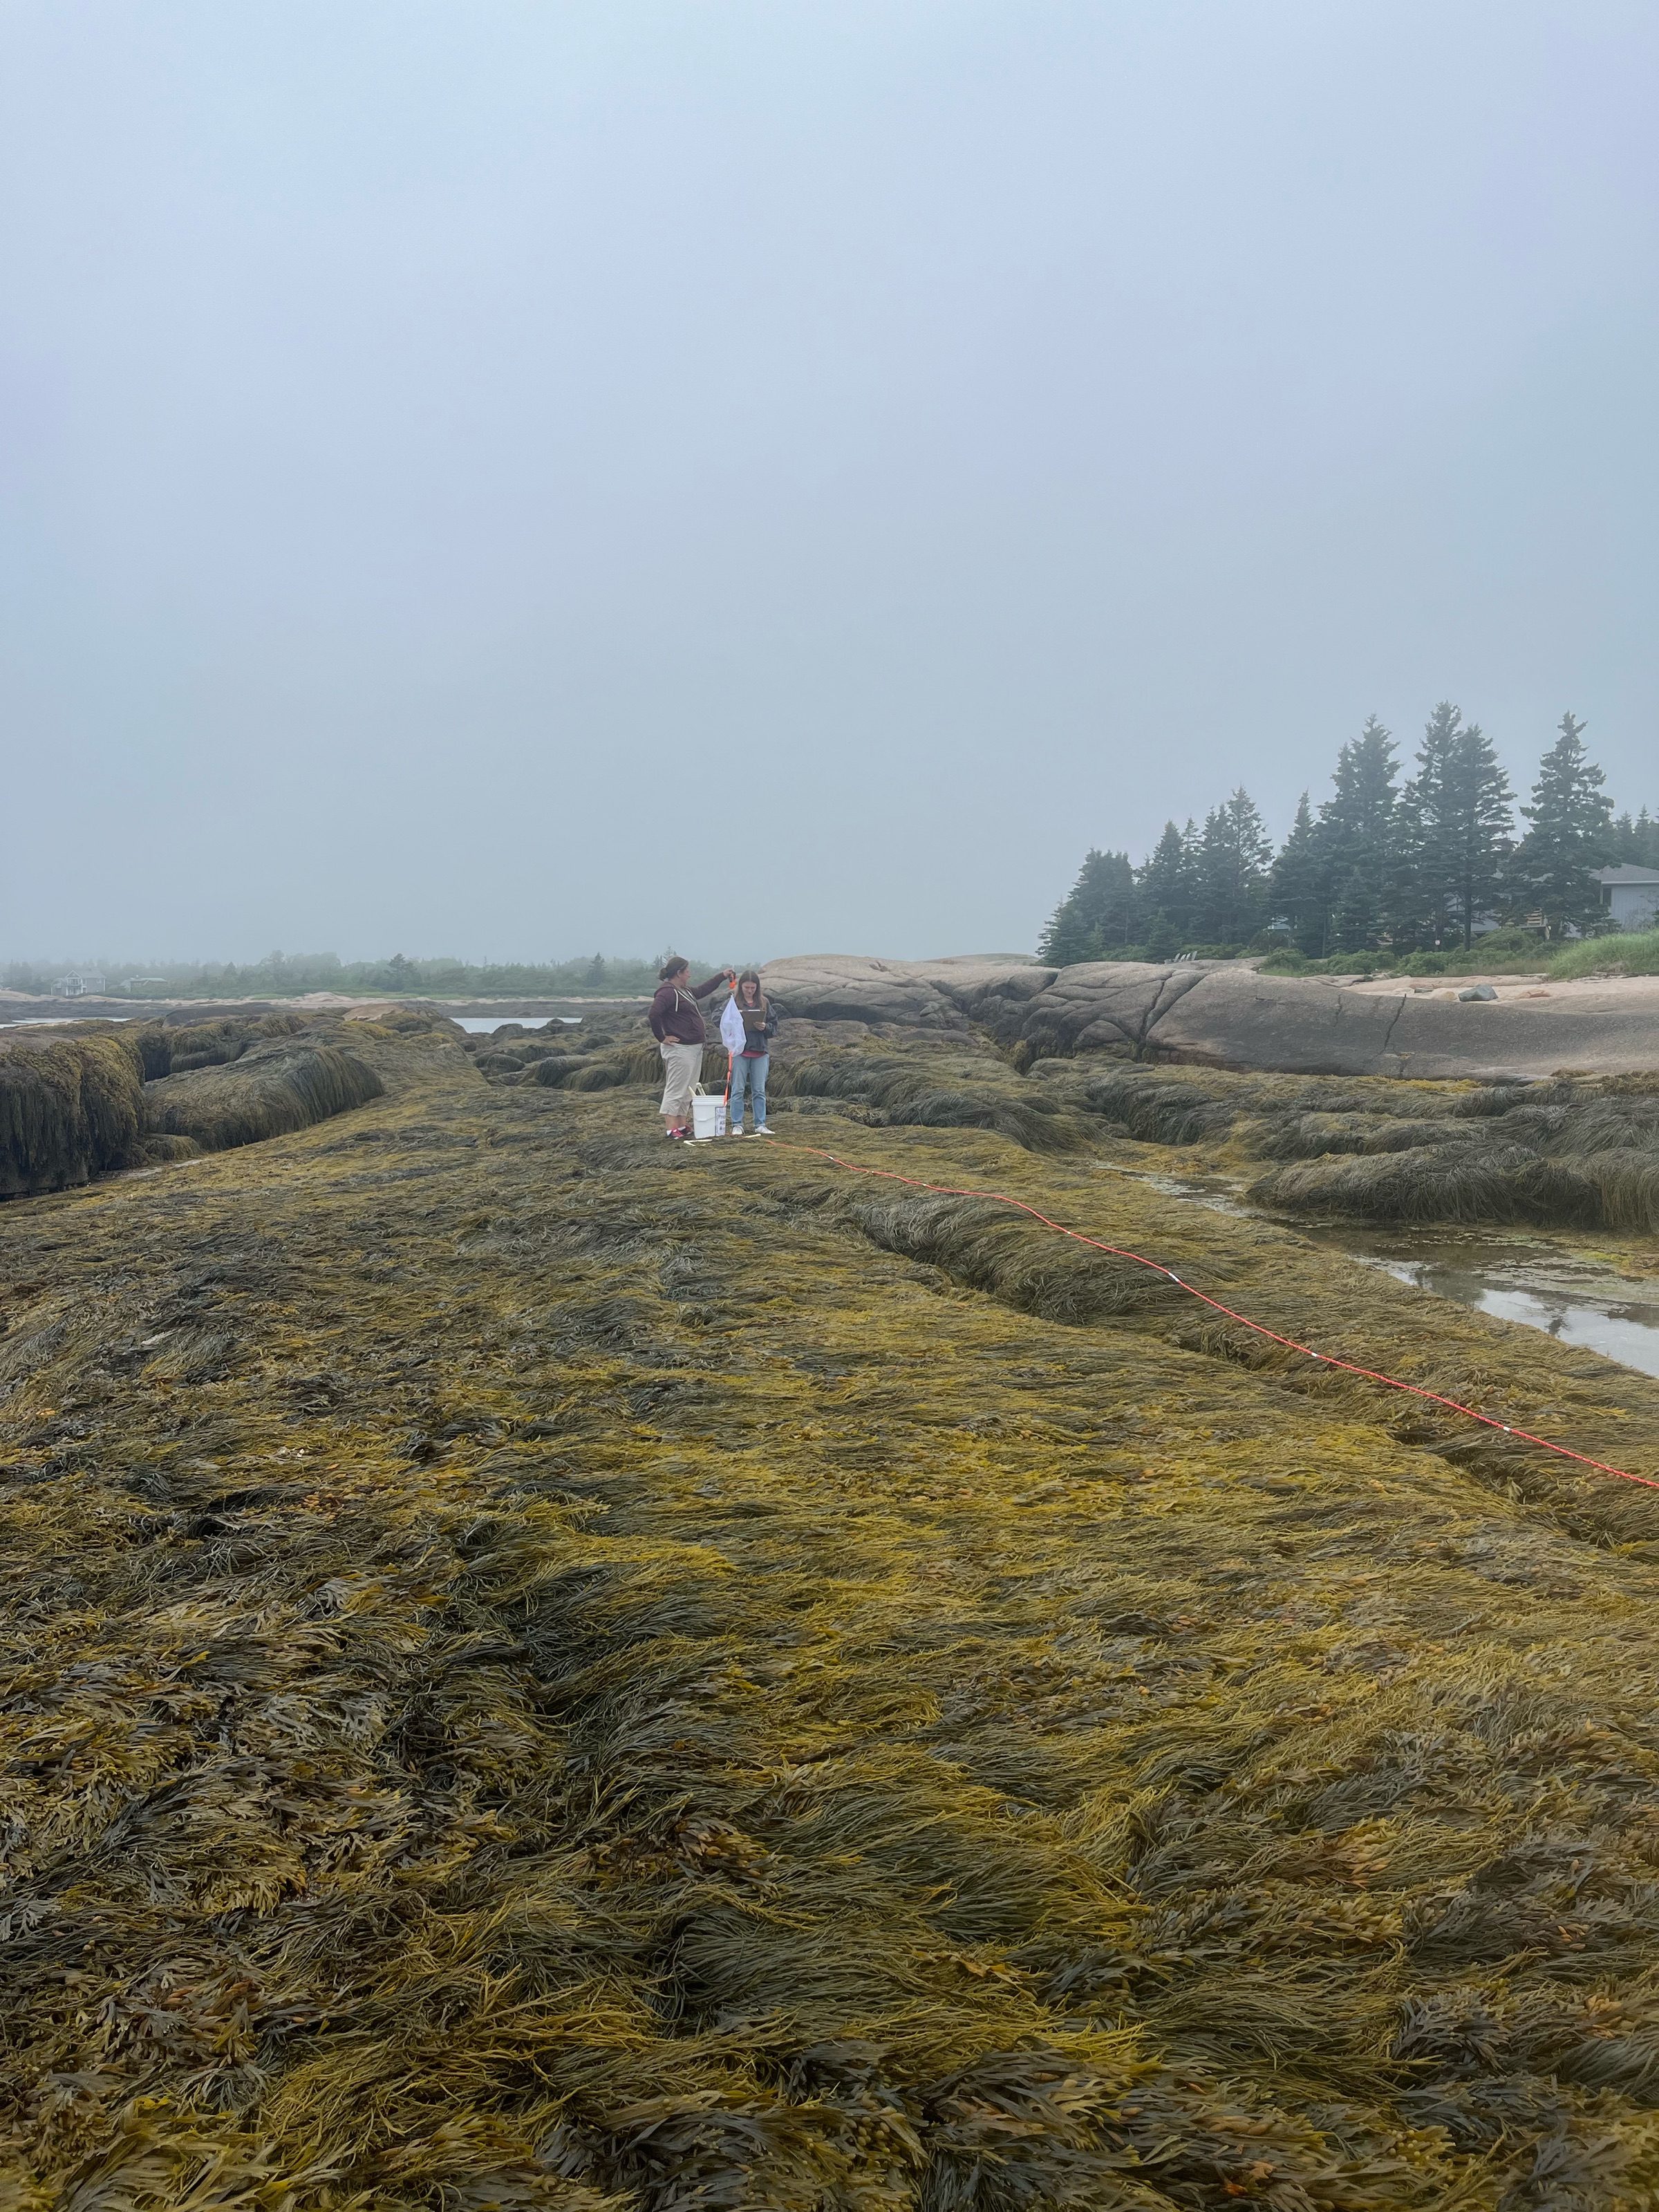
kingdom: Chromista
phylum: Ochrophyta
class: Phaeophyceae
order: Fucales
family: Fucaceae
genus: Ascophyllum
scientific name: Ascophyllum nodosum
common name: Rockweed
